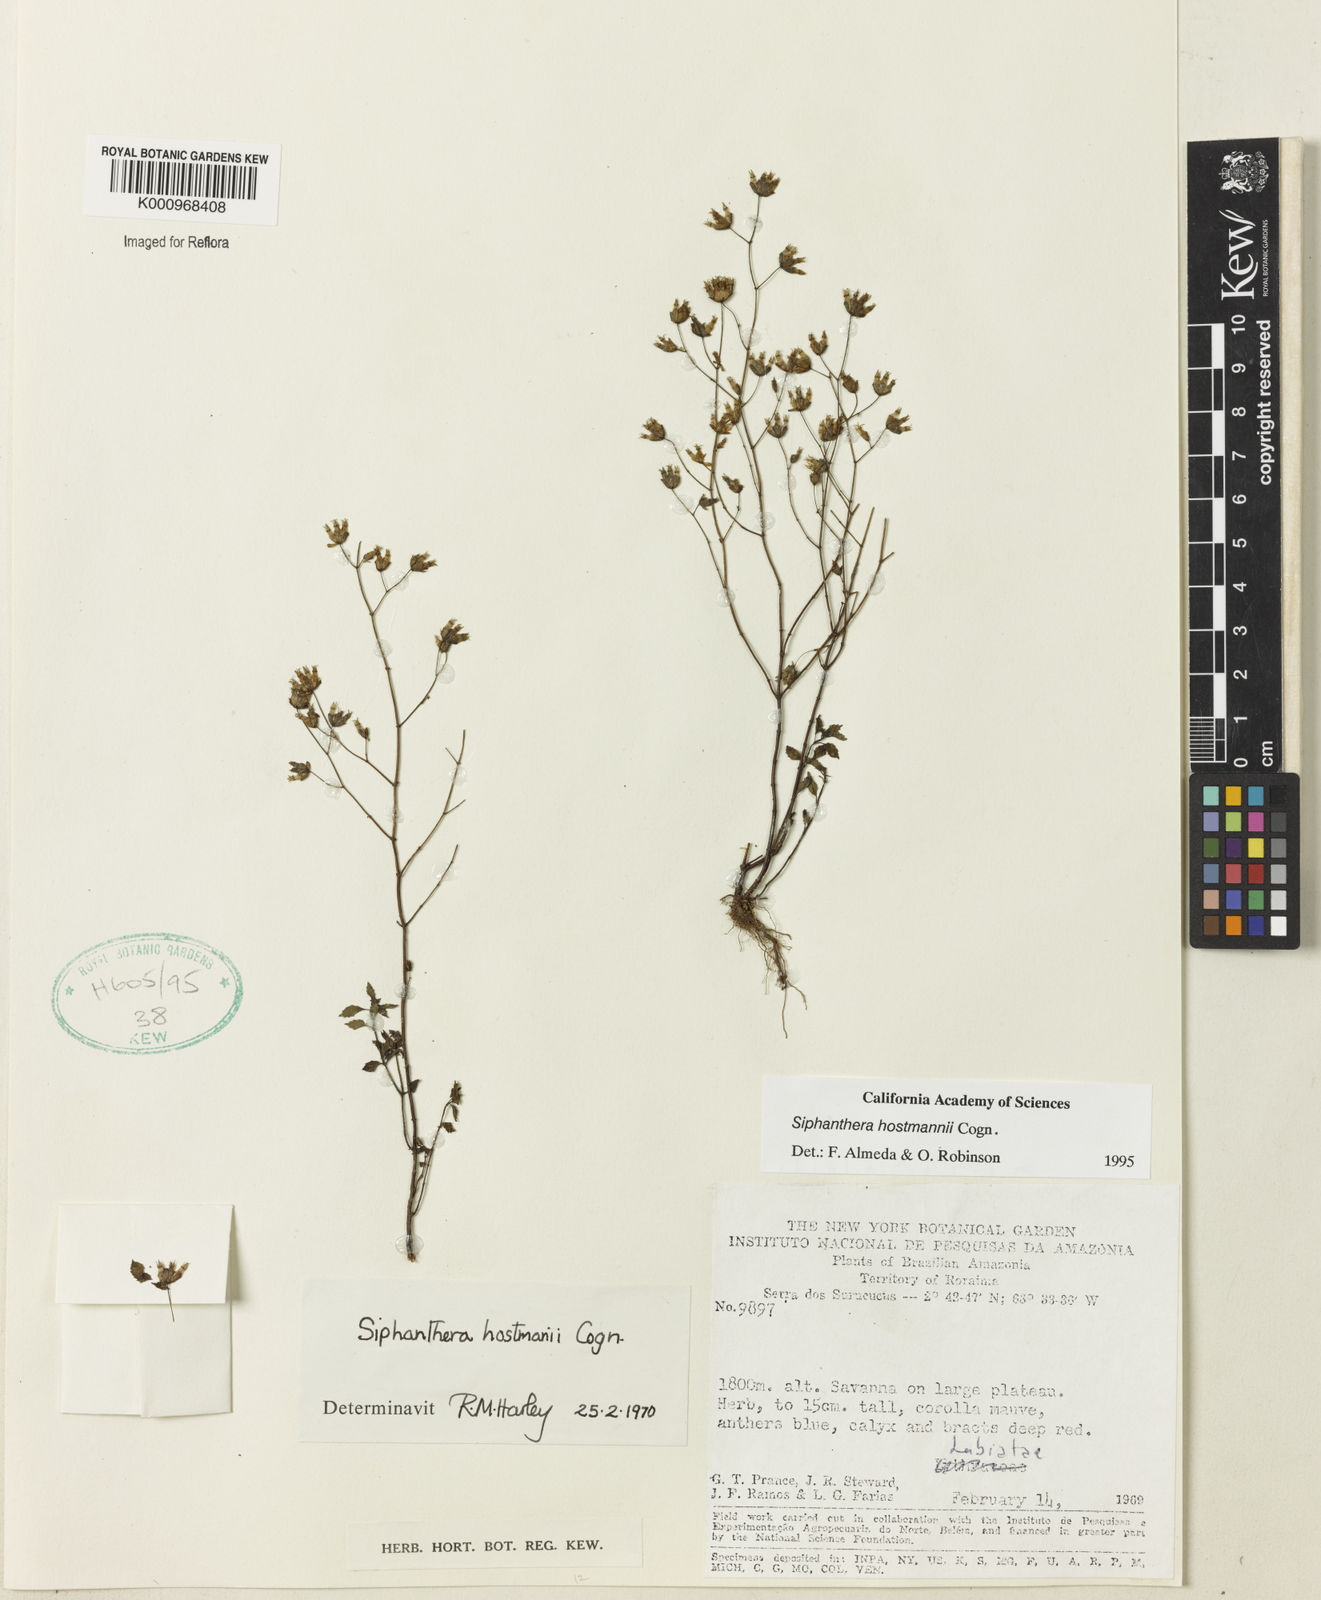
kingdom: Plantae
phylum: Tracheophyta
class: Magnoliopsida
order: Myrtales
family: Melastomataceae
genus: Siphanthera
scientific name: Siphanthera hostmannii
